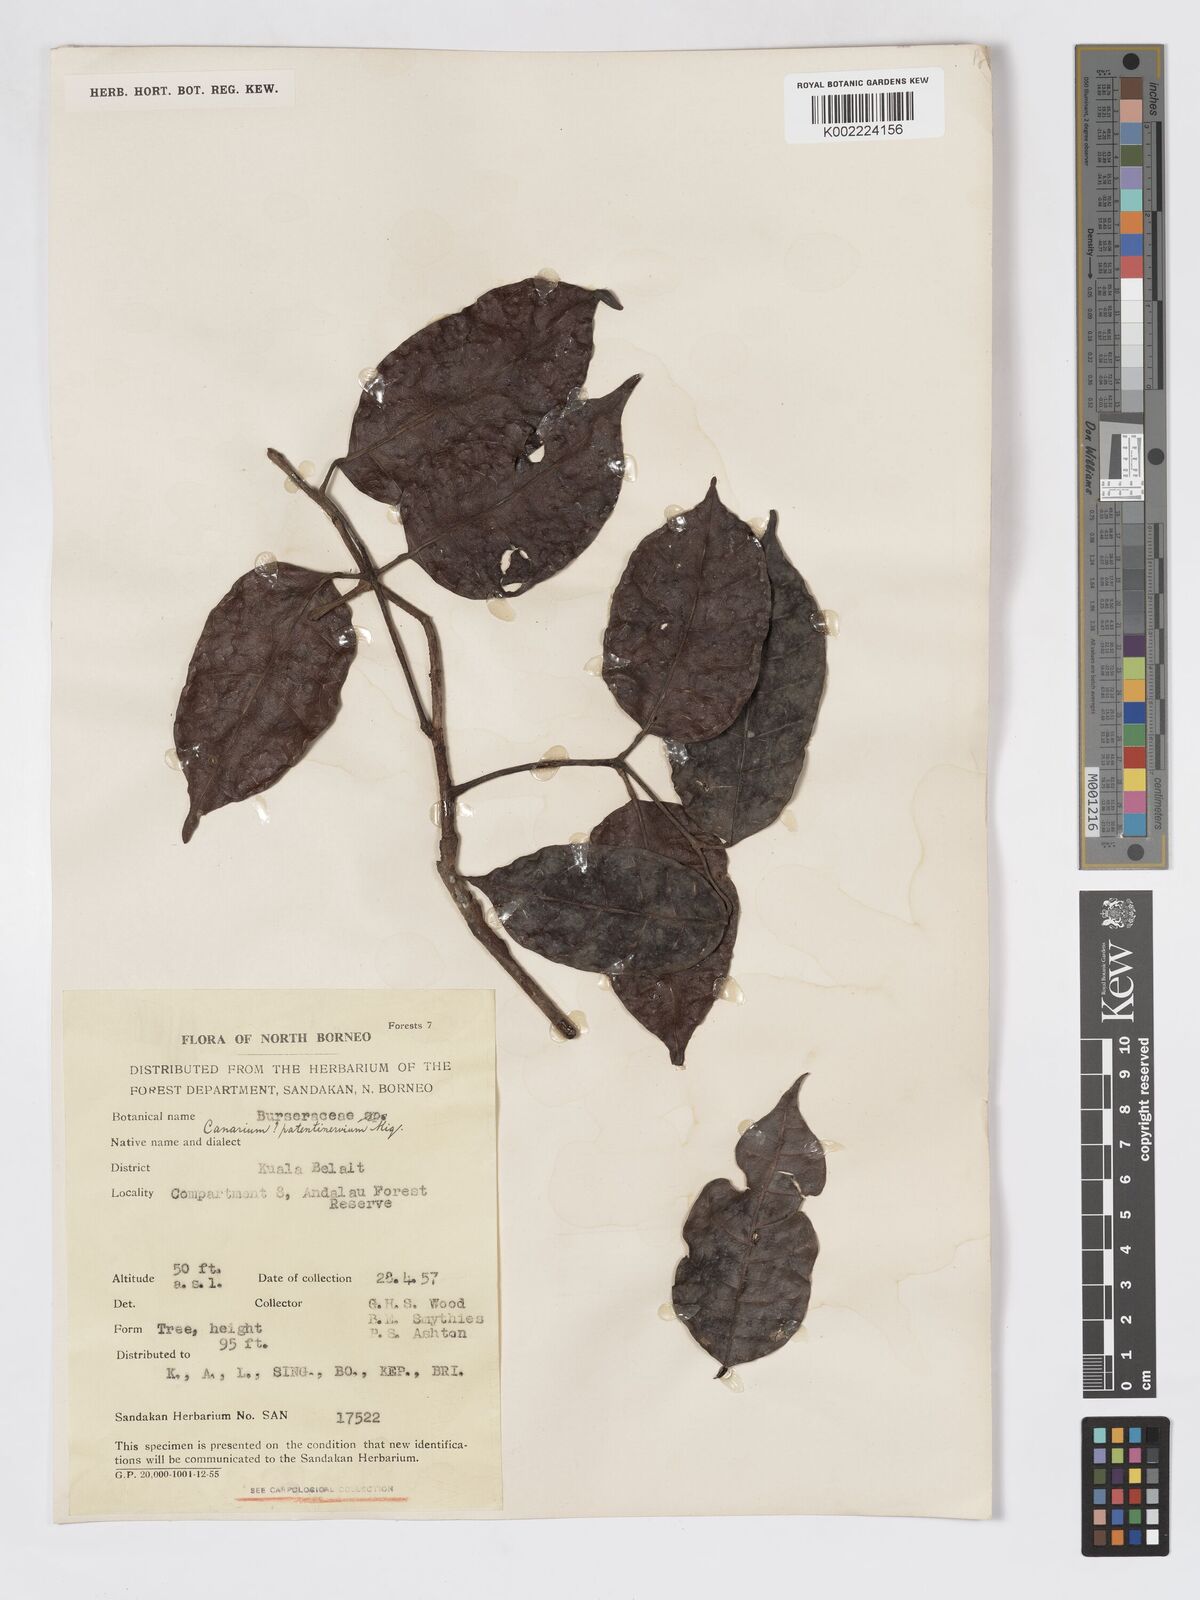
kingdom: Plantae
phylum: Tracheophyta
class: Magnoliopsida
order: Sapindales
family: Burseraceae
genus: Canarium
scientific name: Canarium patentinervium
